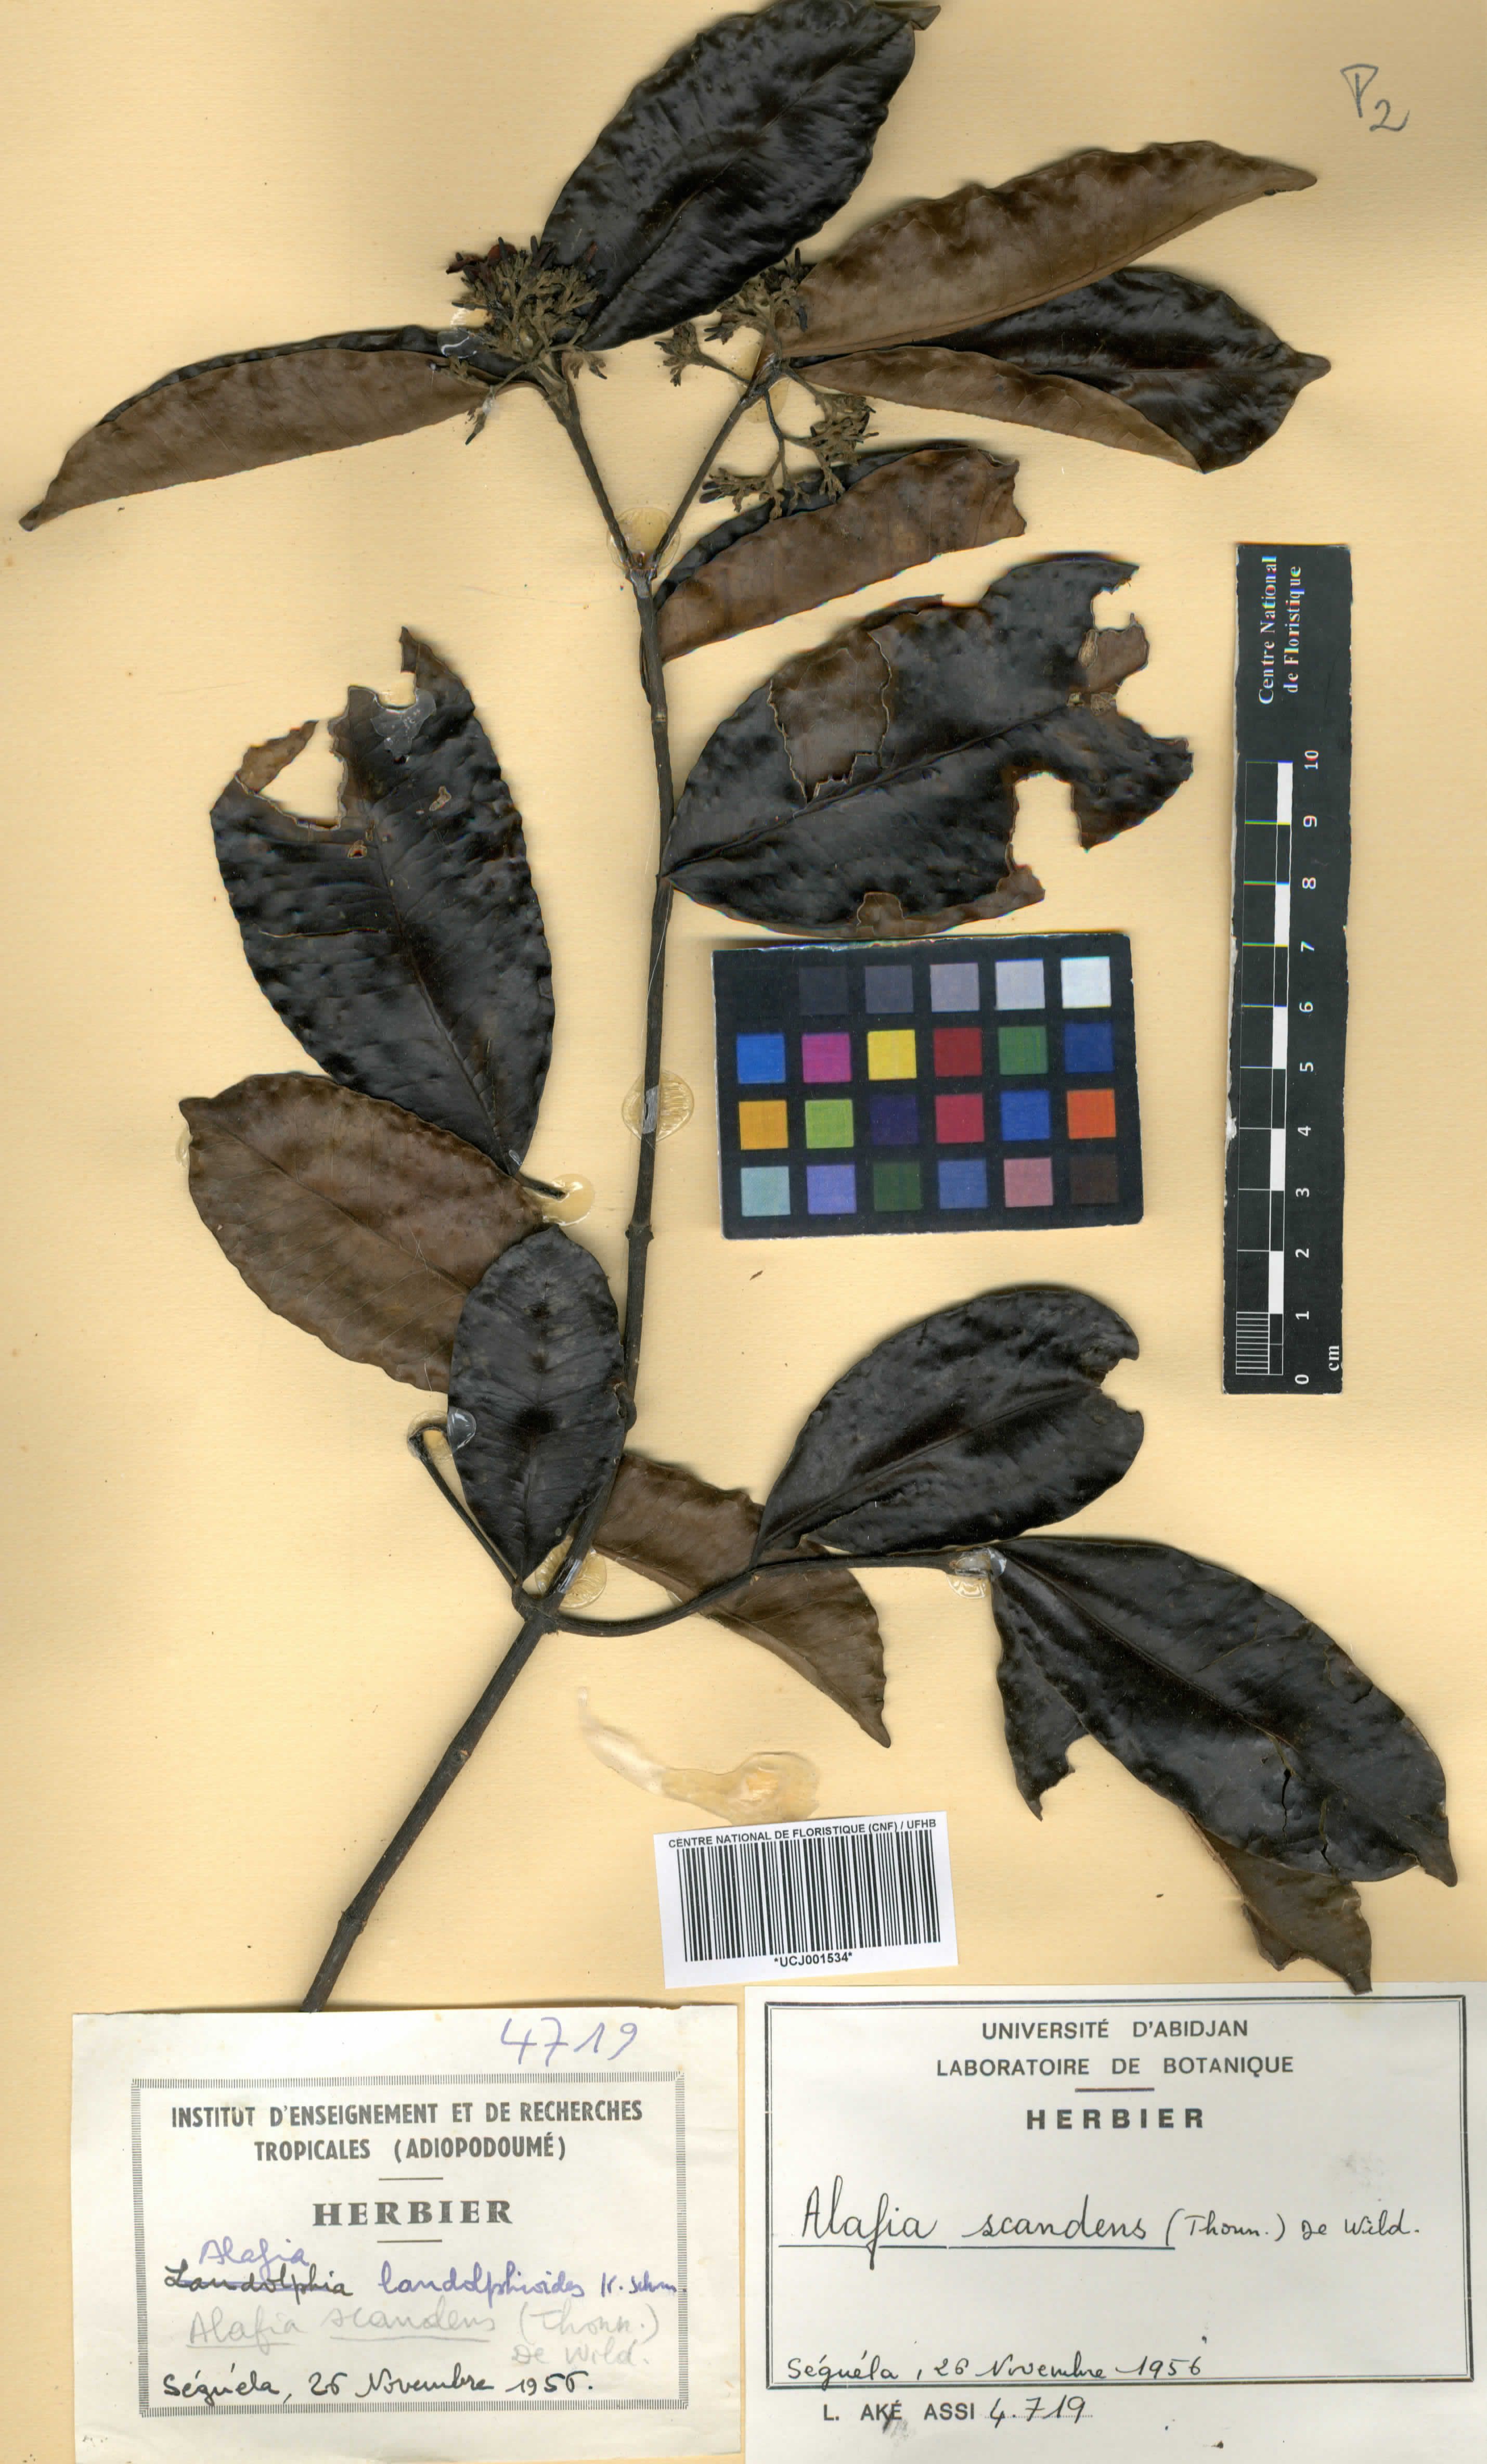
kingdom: Plantae
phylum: Tracheophyta
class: Magnoliopsida
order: Gentianales
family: Apocynaceae
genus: Alafia
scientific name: Alafia scandens
